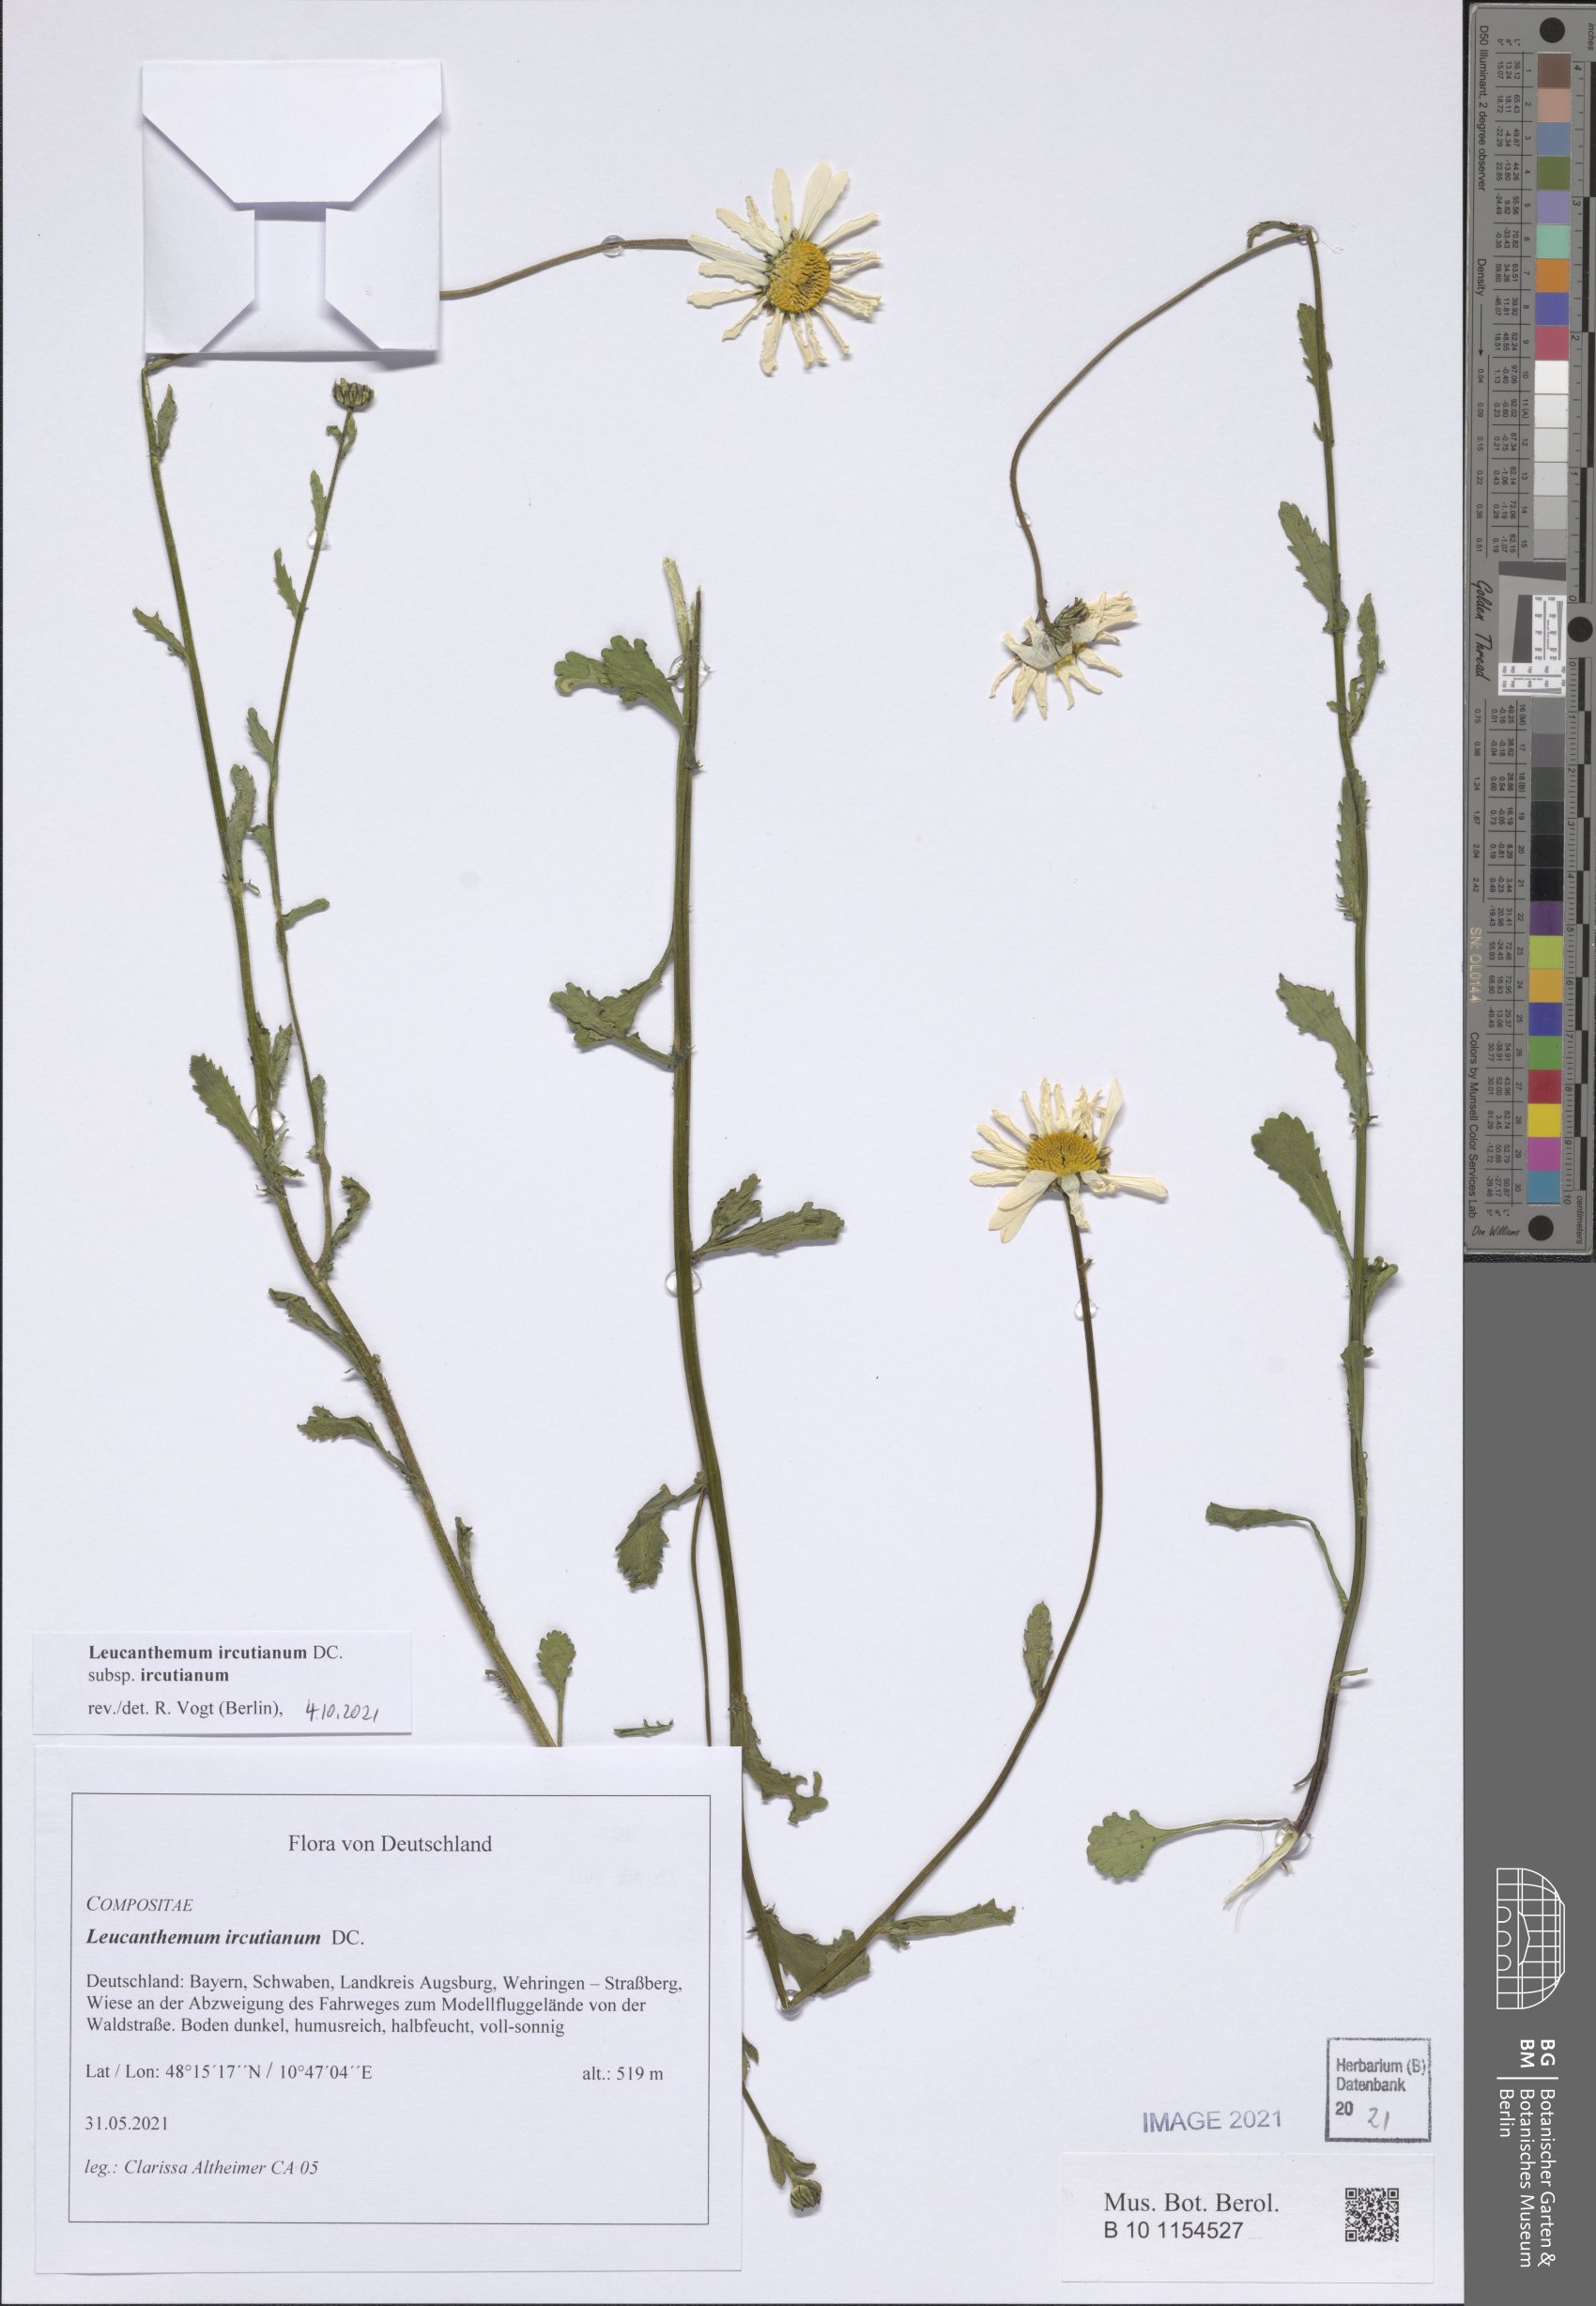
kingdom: Plantae
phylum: Tracheophyta
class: Magnoliopsida
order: Asterales
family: Asteraceae
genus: Leucanthemum
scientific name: Leucanthemum ircutianum
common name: Daisy
